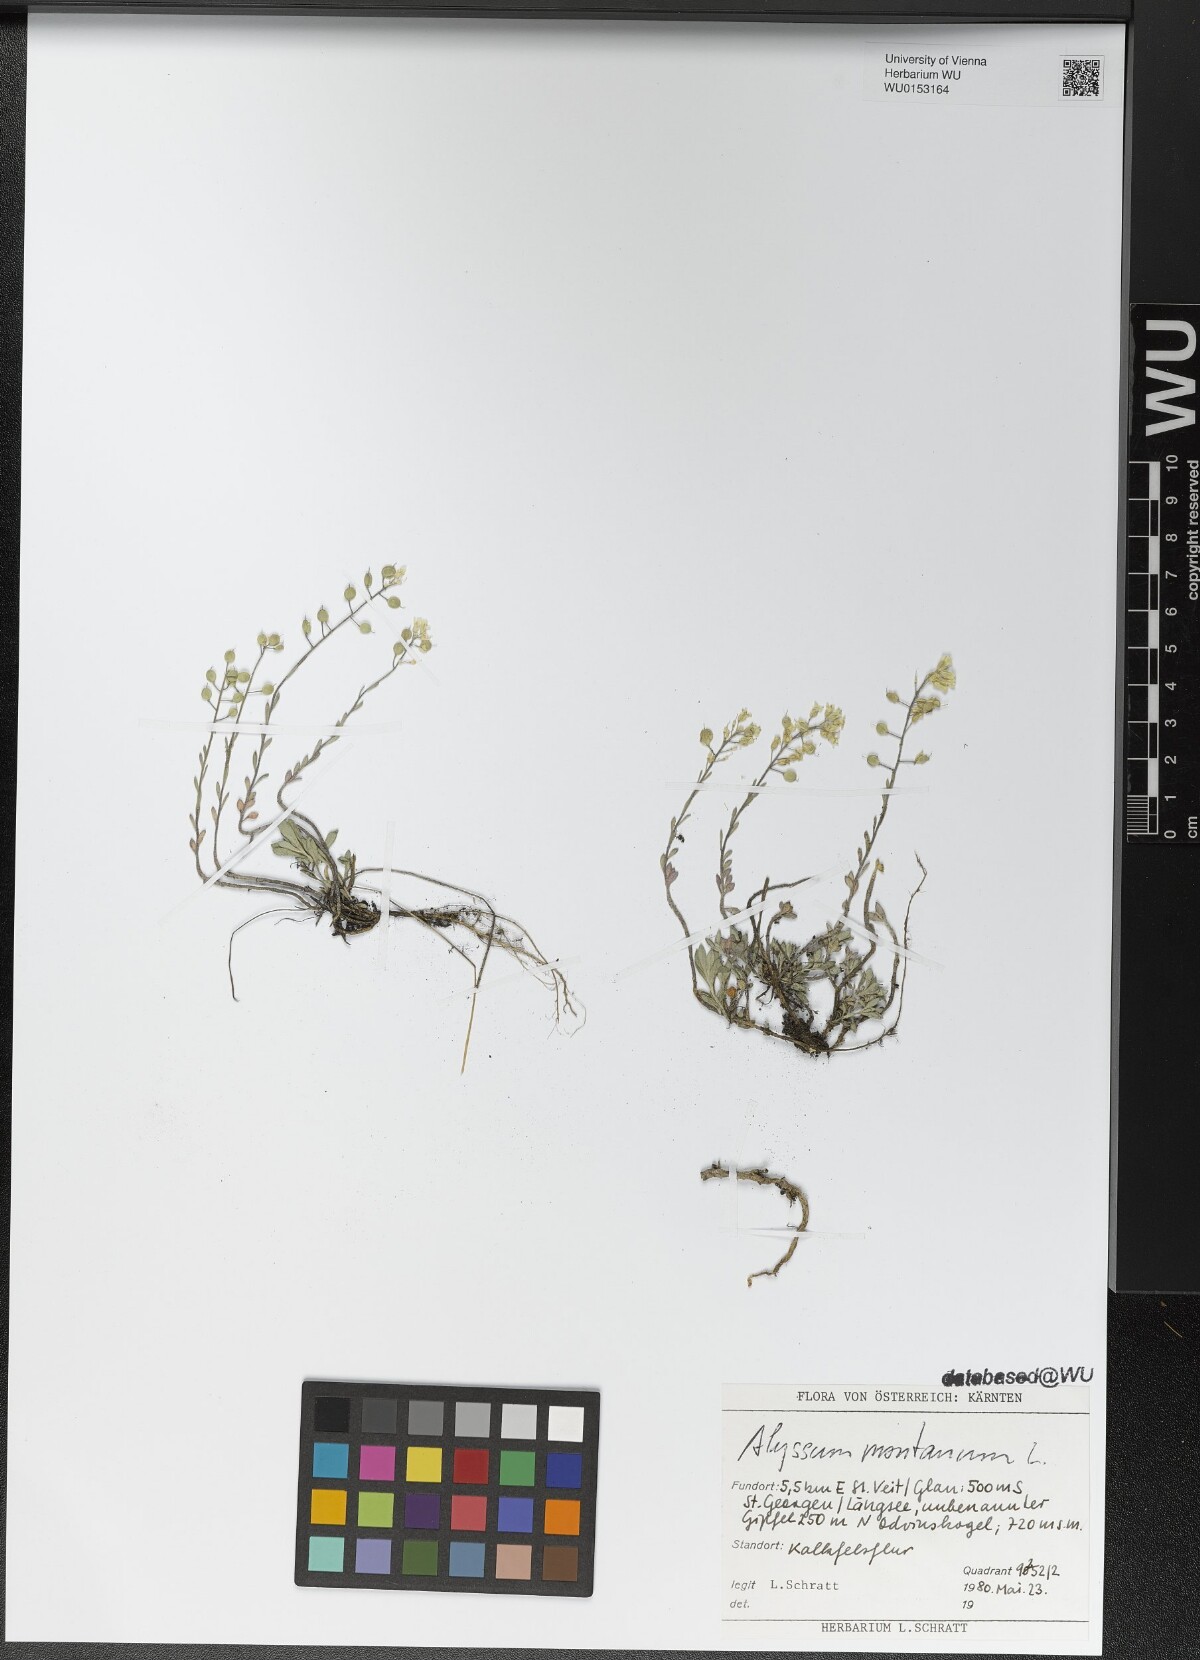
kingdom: Plantae
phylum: Tracheophyta
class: Magnoliopsida
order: Brassicales
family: Brassicaceae
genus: Alyssum
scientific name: Alyssum montanum
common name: Mountain alison
